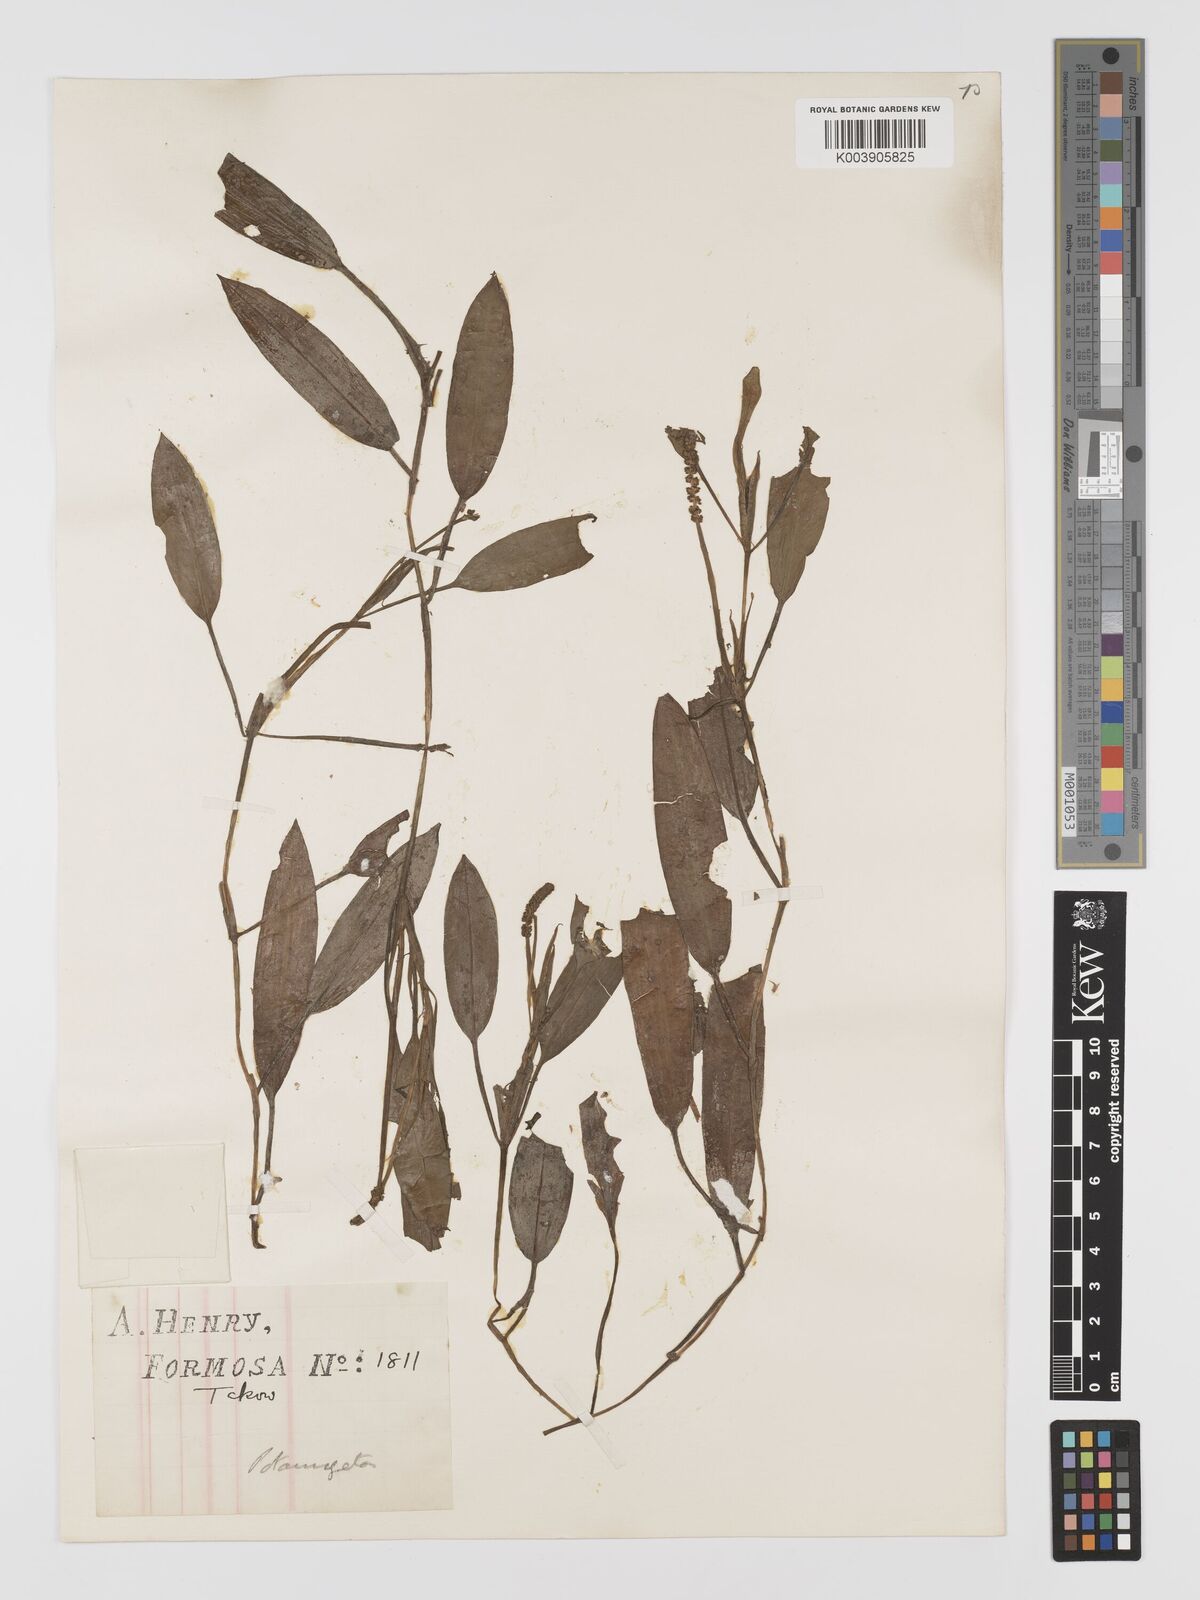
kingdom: Plantae
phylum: Tracheophyta
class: Liliopsida
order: Alismatales
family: Potamogetonaceae
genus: Potamogeton
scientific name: Potamogeton nodosus
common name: Loddon pondweed
